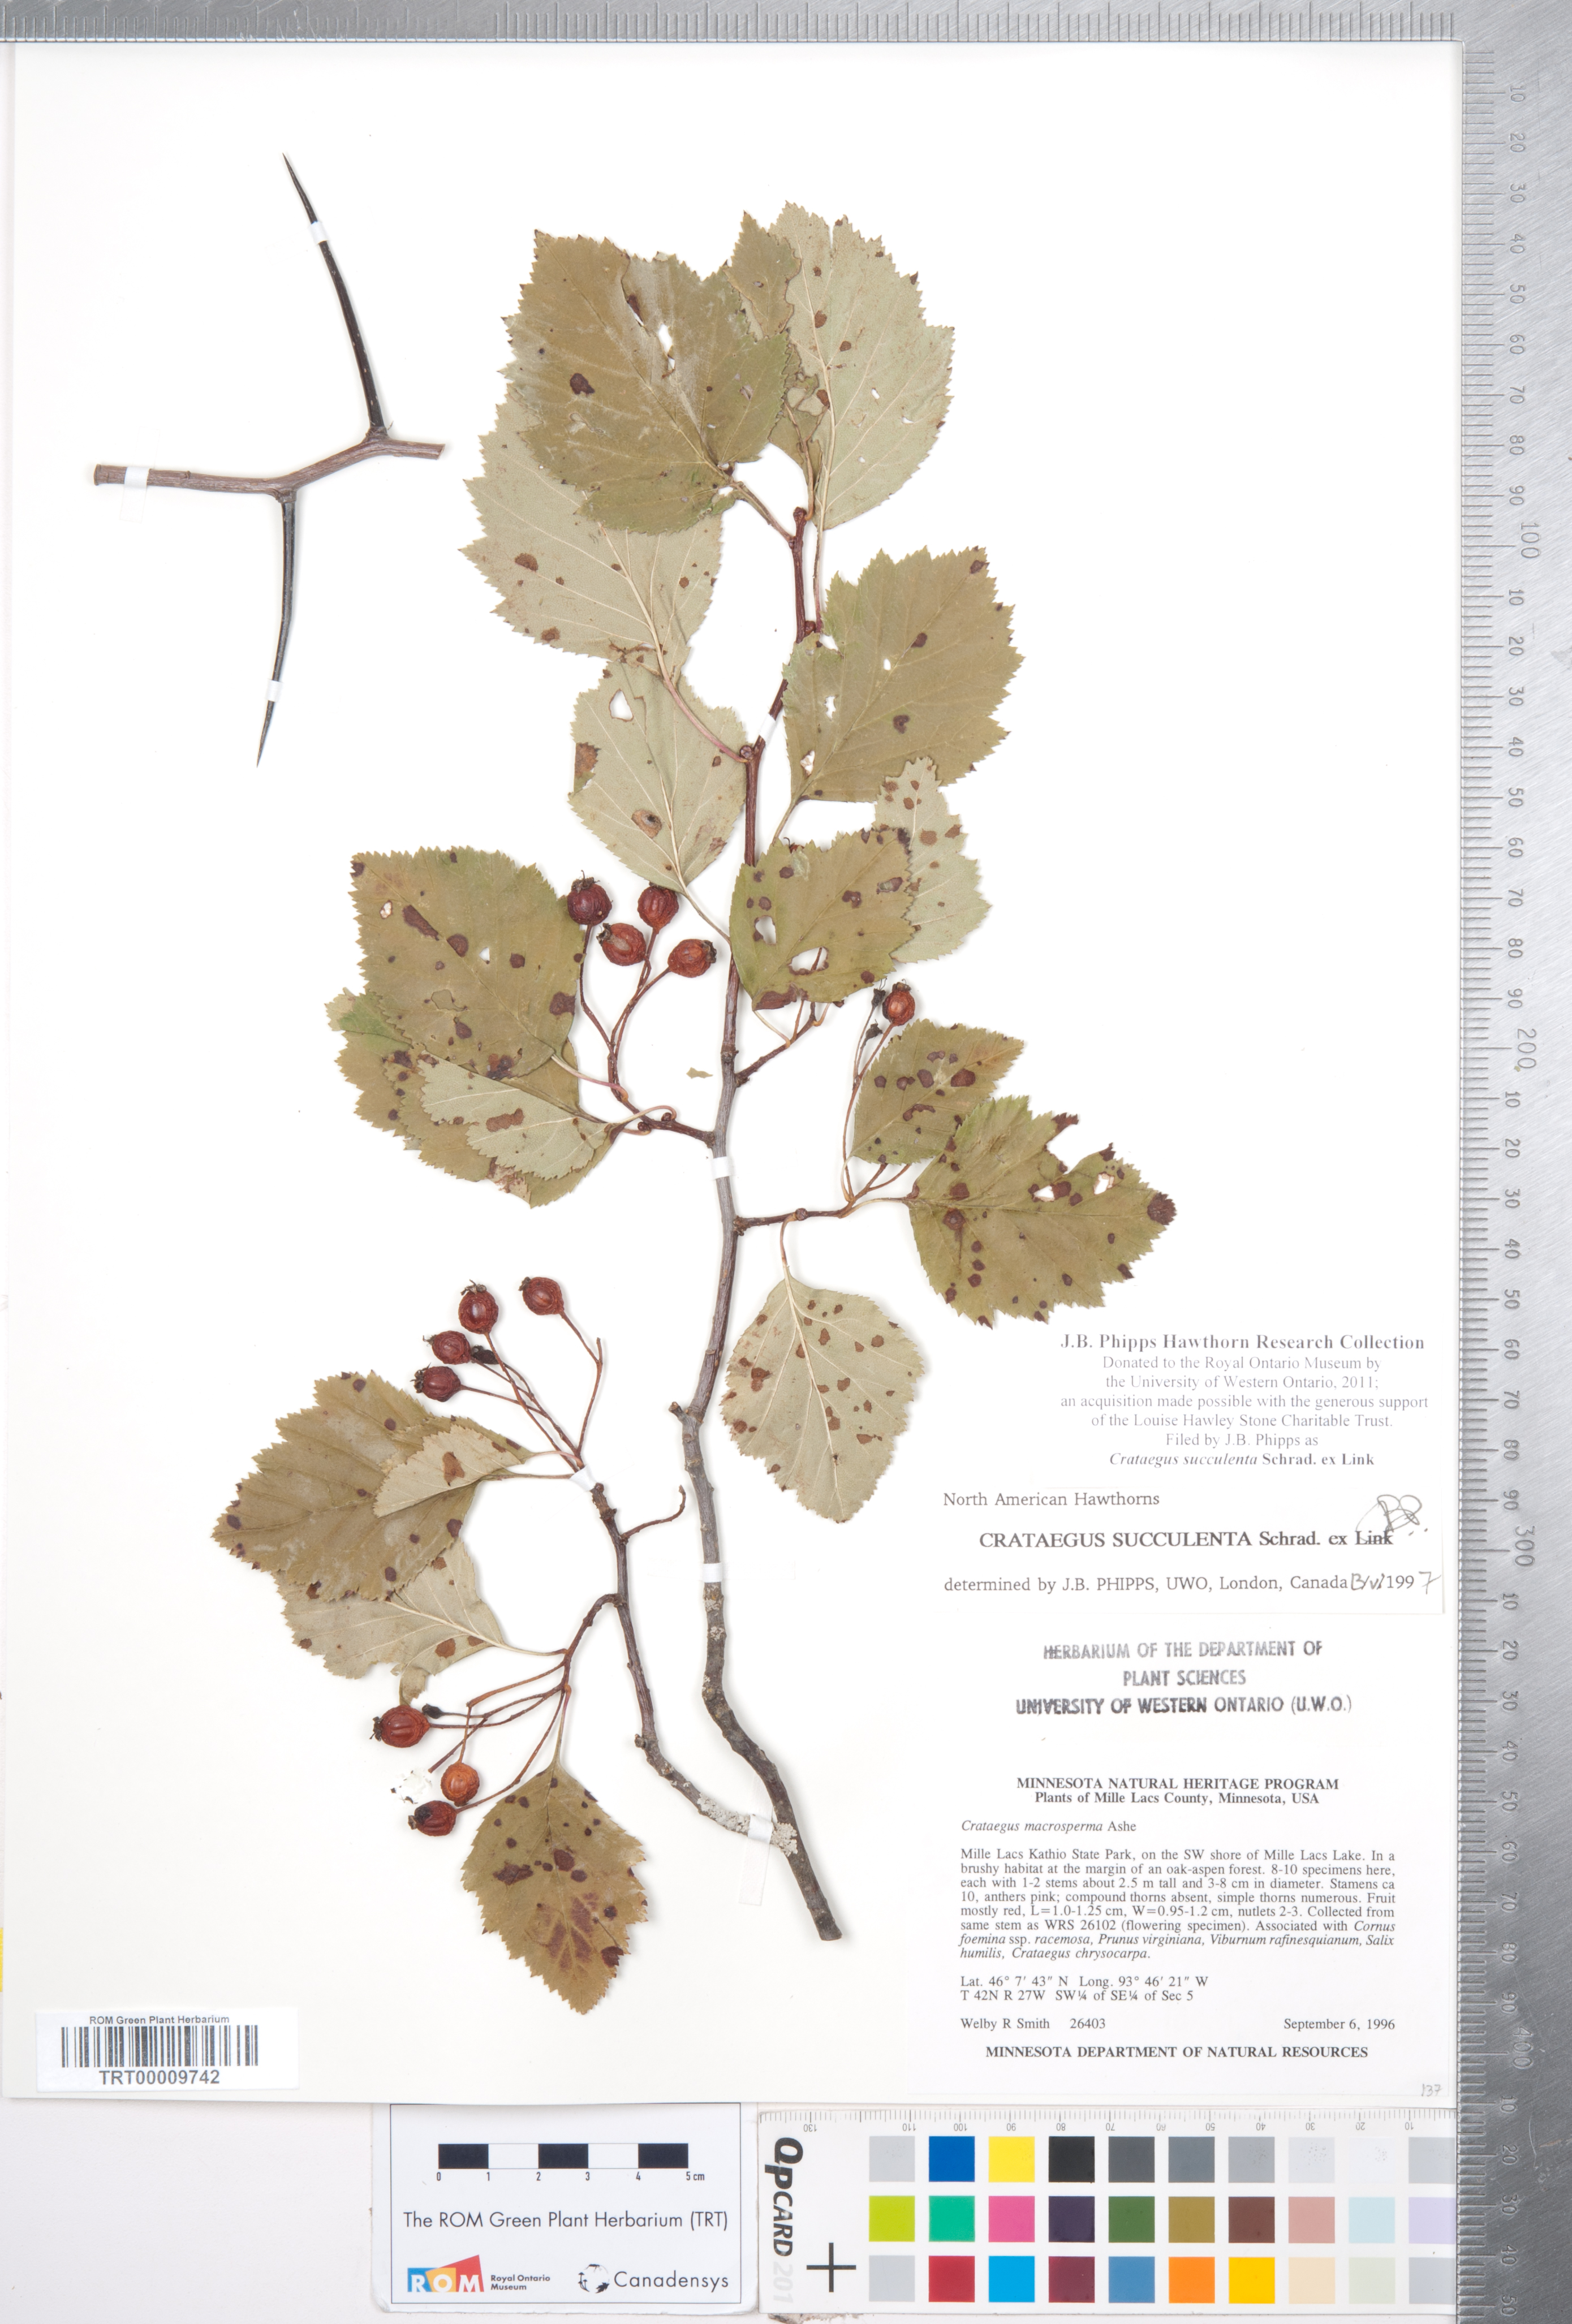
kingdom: Plantae
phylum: Tracheophyta
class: Magnoliopsida
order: Rosales
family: Rosaceae
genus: Crataegus
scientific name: Crataegus succulenta
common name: Fleshy hawthorn
